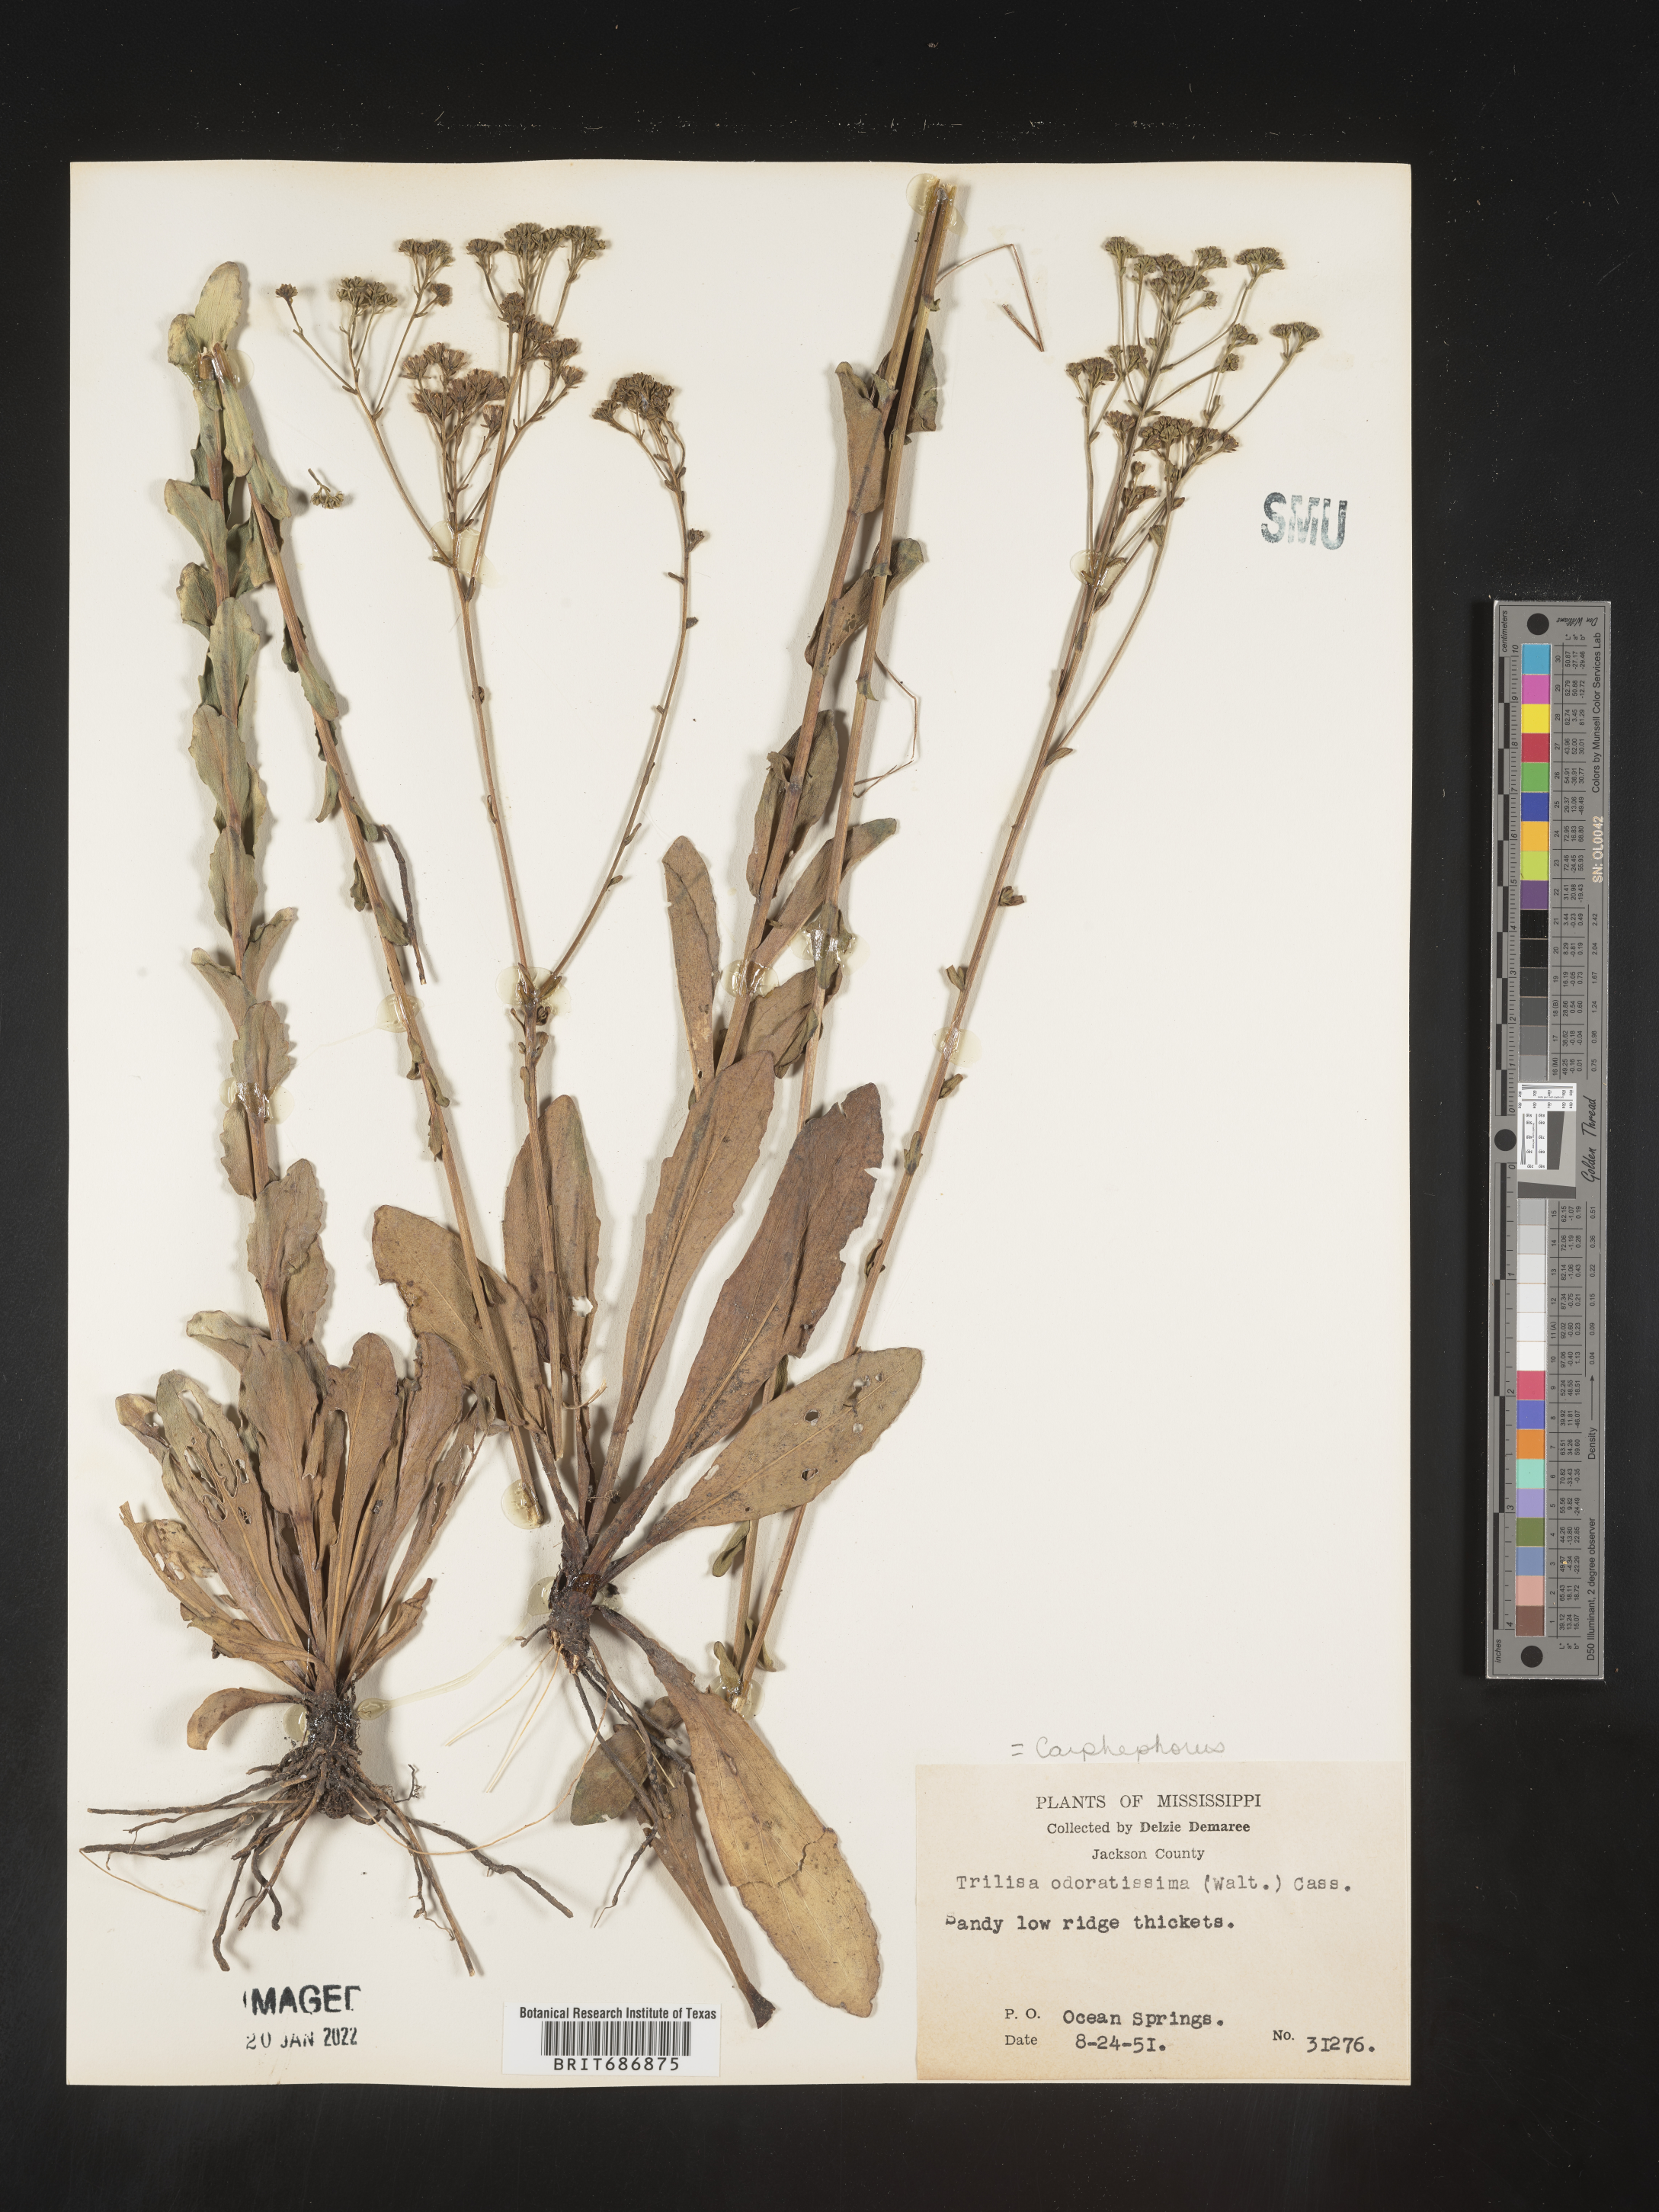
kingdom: Plantae
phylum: Tracheophyta
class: Magnoliopsida
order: Asterales
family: Asteraceae
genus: Carphephorus
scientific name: Carphephorus odoratissimus
